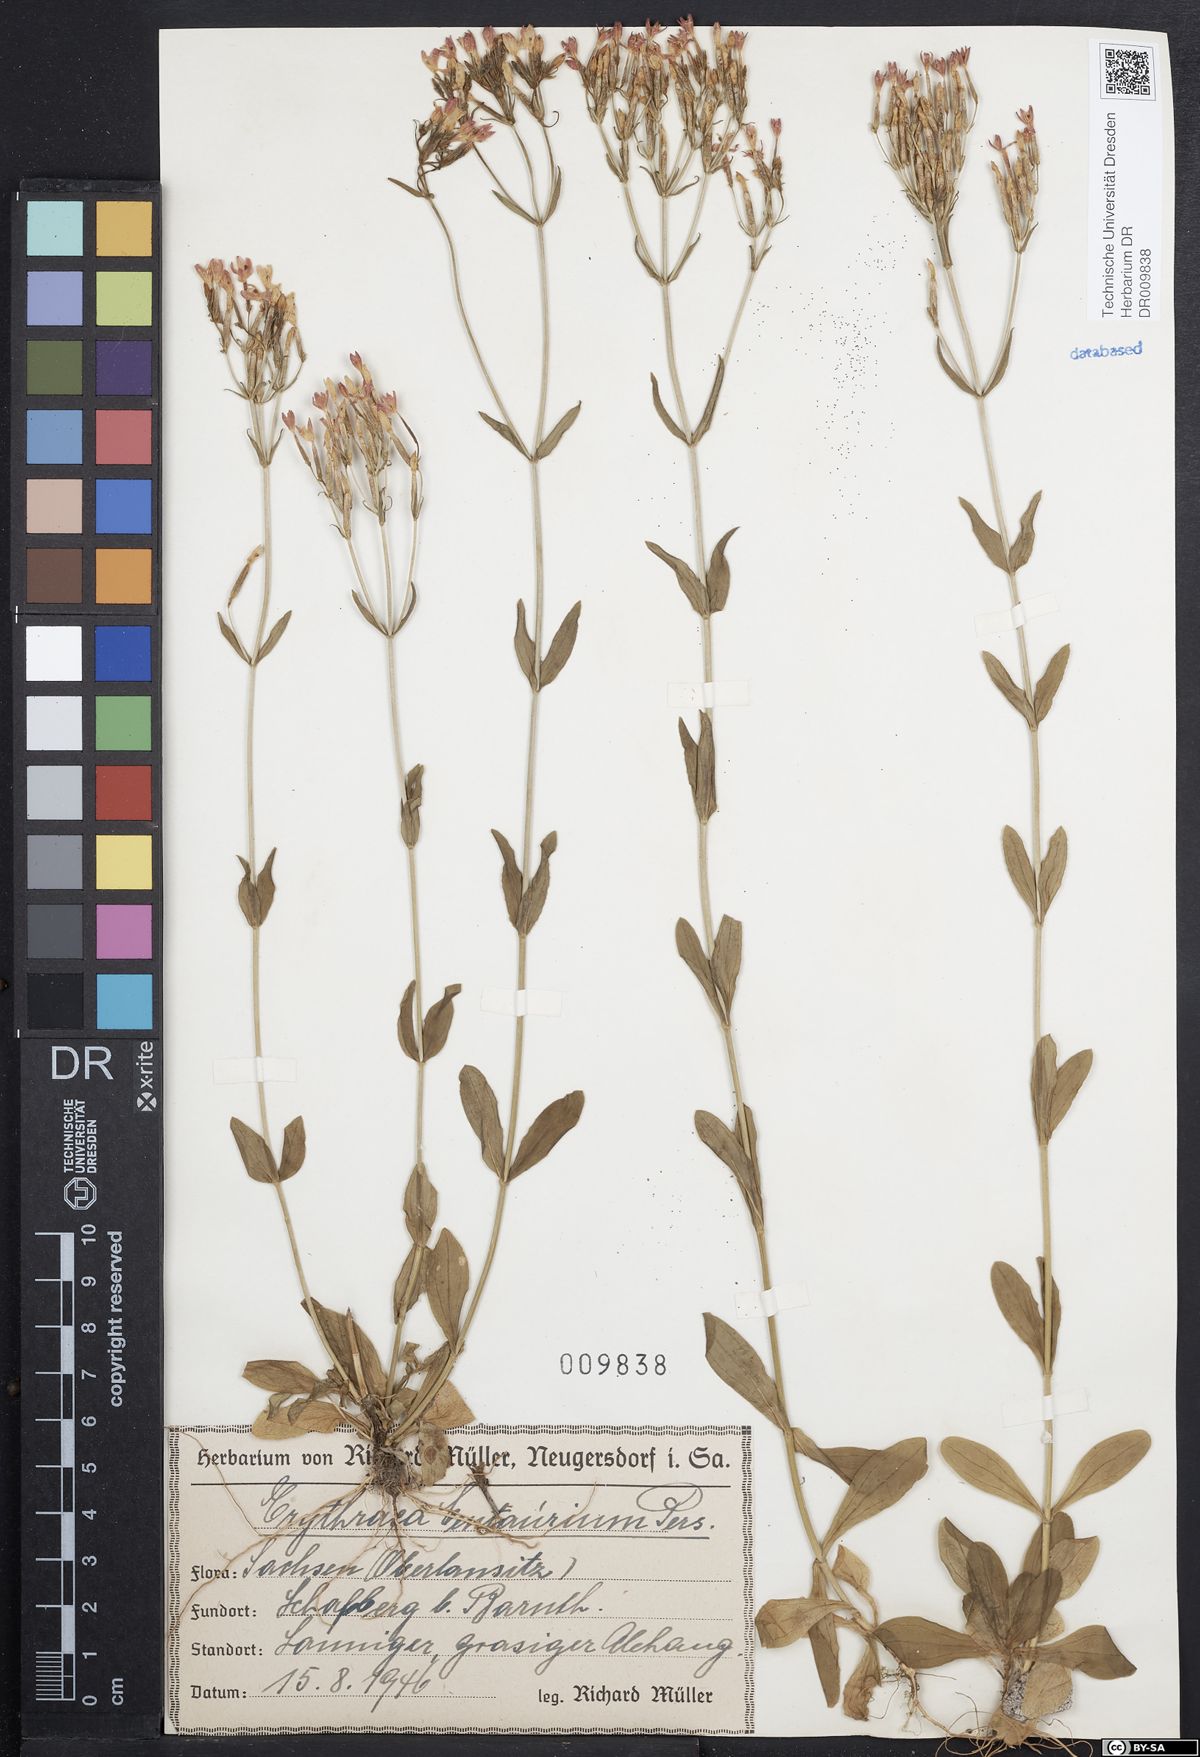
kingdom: Plantae
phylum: Tracheophyta
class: Magnoliopsida
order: Gentianales
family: Gentianaceae
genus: Centaurium
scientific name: Centaurium erythraea
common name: Common centaury
